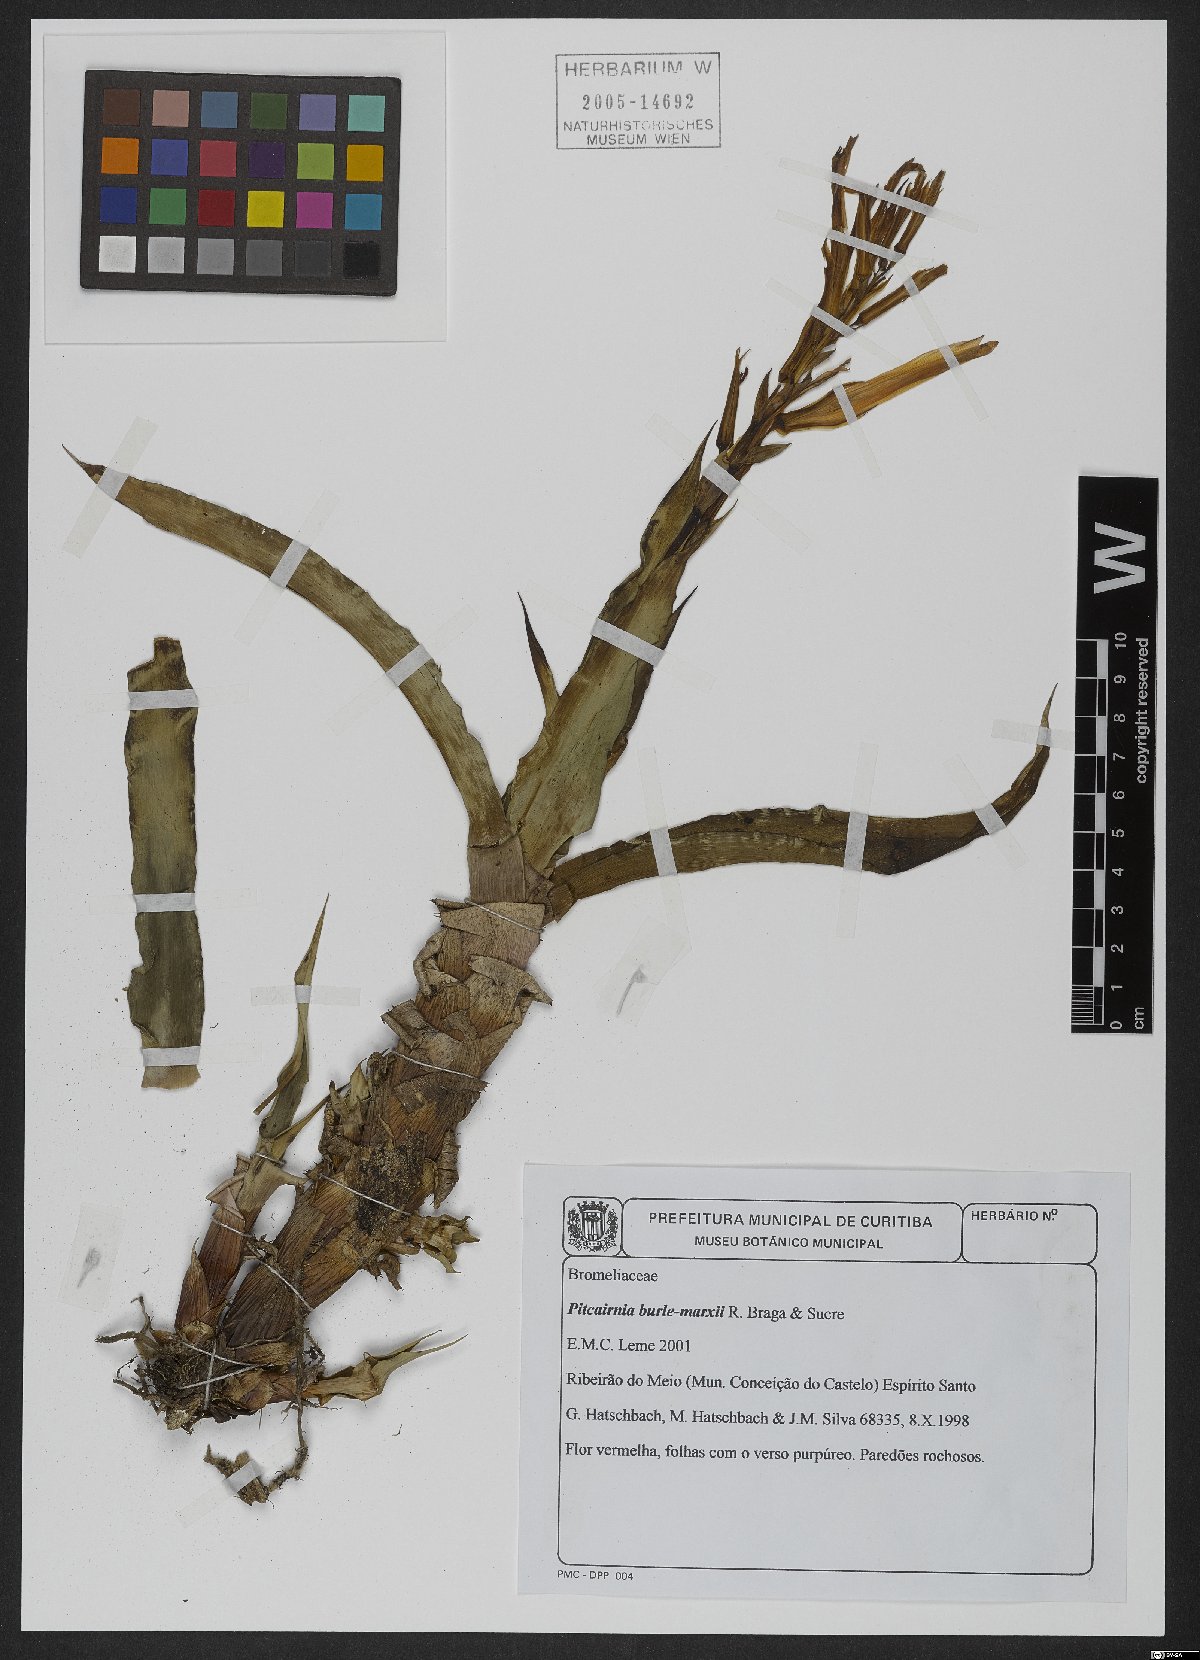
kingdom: Plantae
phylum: Tracheophyta
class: Liliopsida
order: Poales
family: Bromeliaceae
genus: Pitcairnia
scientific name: Pitcairnia burle-marxii
